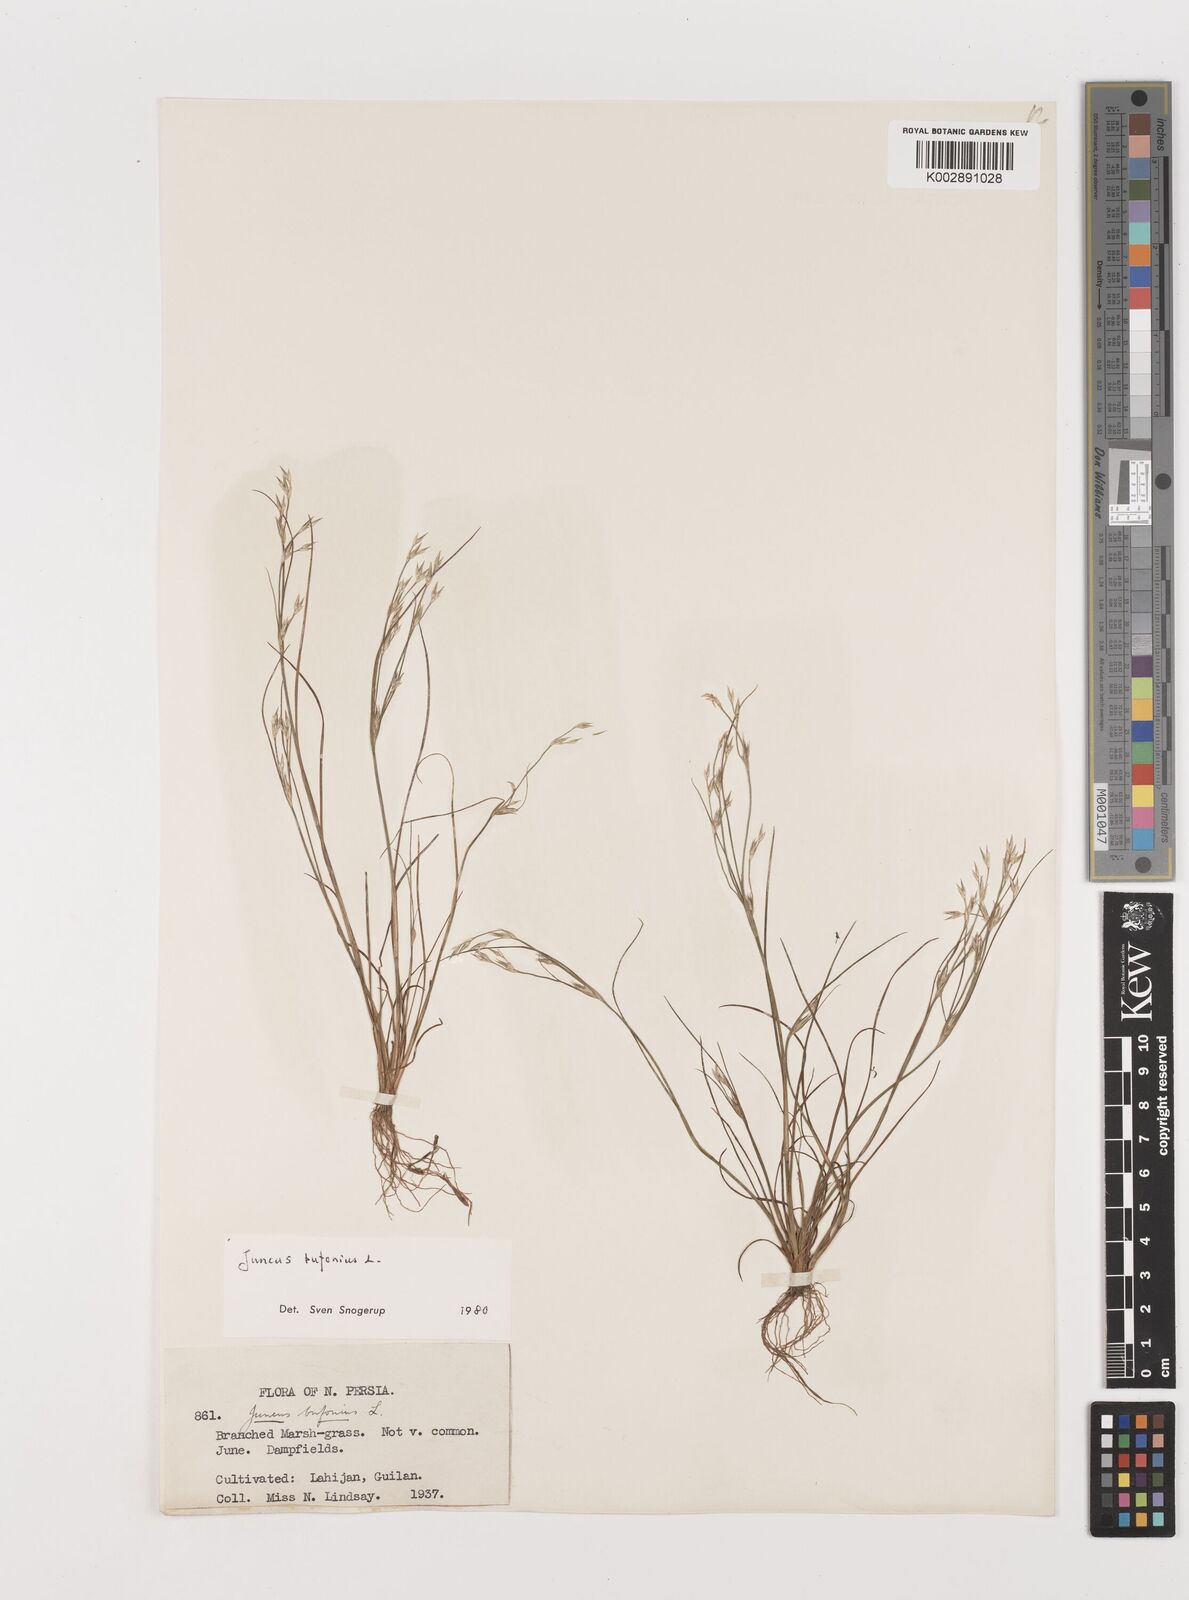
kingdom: Plantae
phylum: Tracheophyta
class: Liliopsida
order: Poales
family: Juncaceae
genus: Juncus
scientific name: Juncus bufonius
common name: Toad rush
